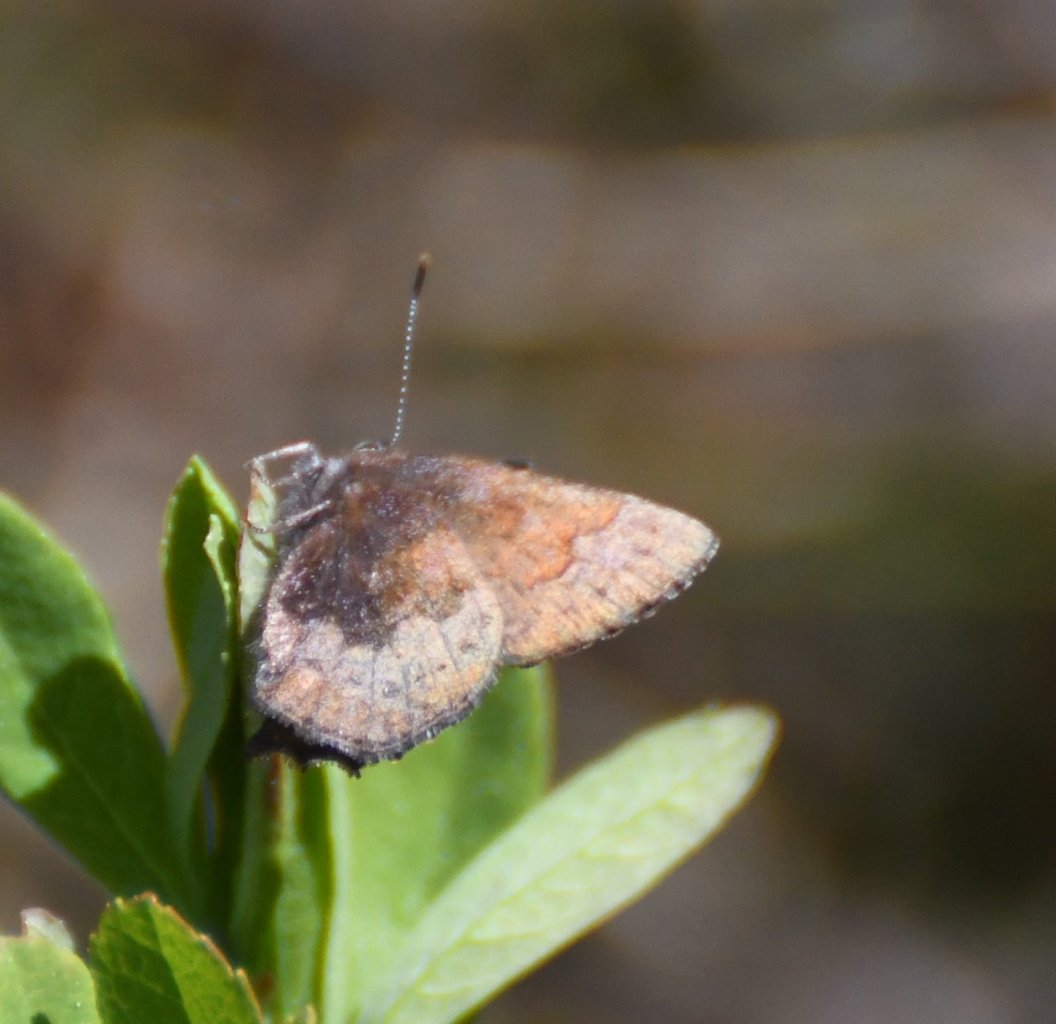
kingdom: Animalia
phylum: Arthropoda
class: Insecta
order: Lepidoptera
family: Lycaenidae
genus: Incisalia
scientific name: Incisalia irioides
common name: Brown Elfin
